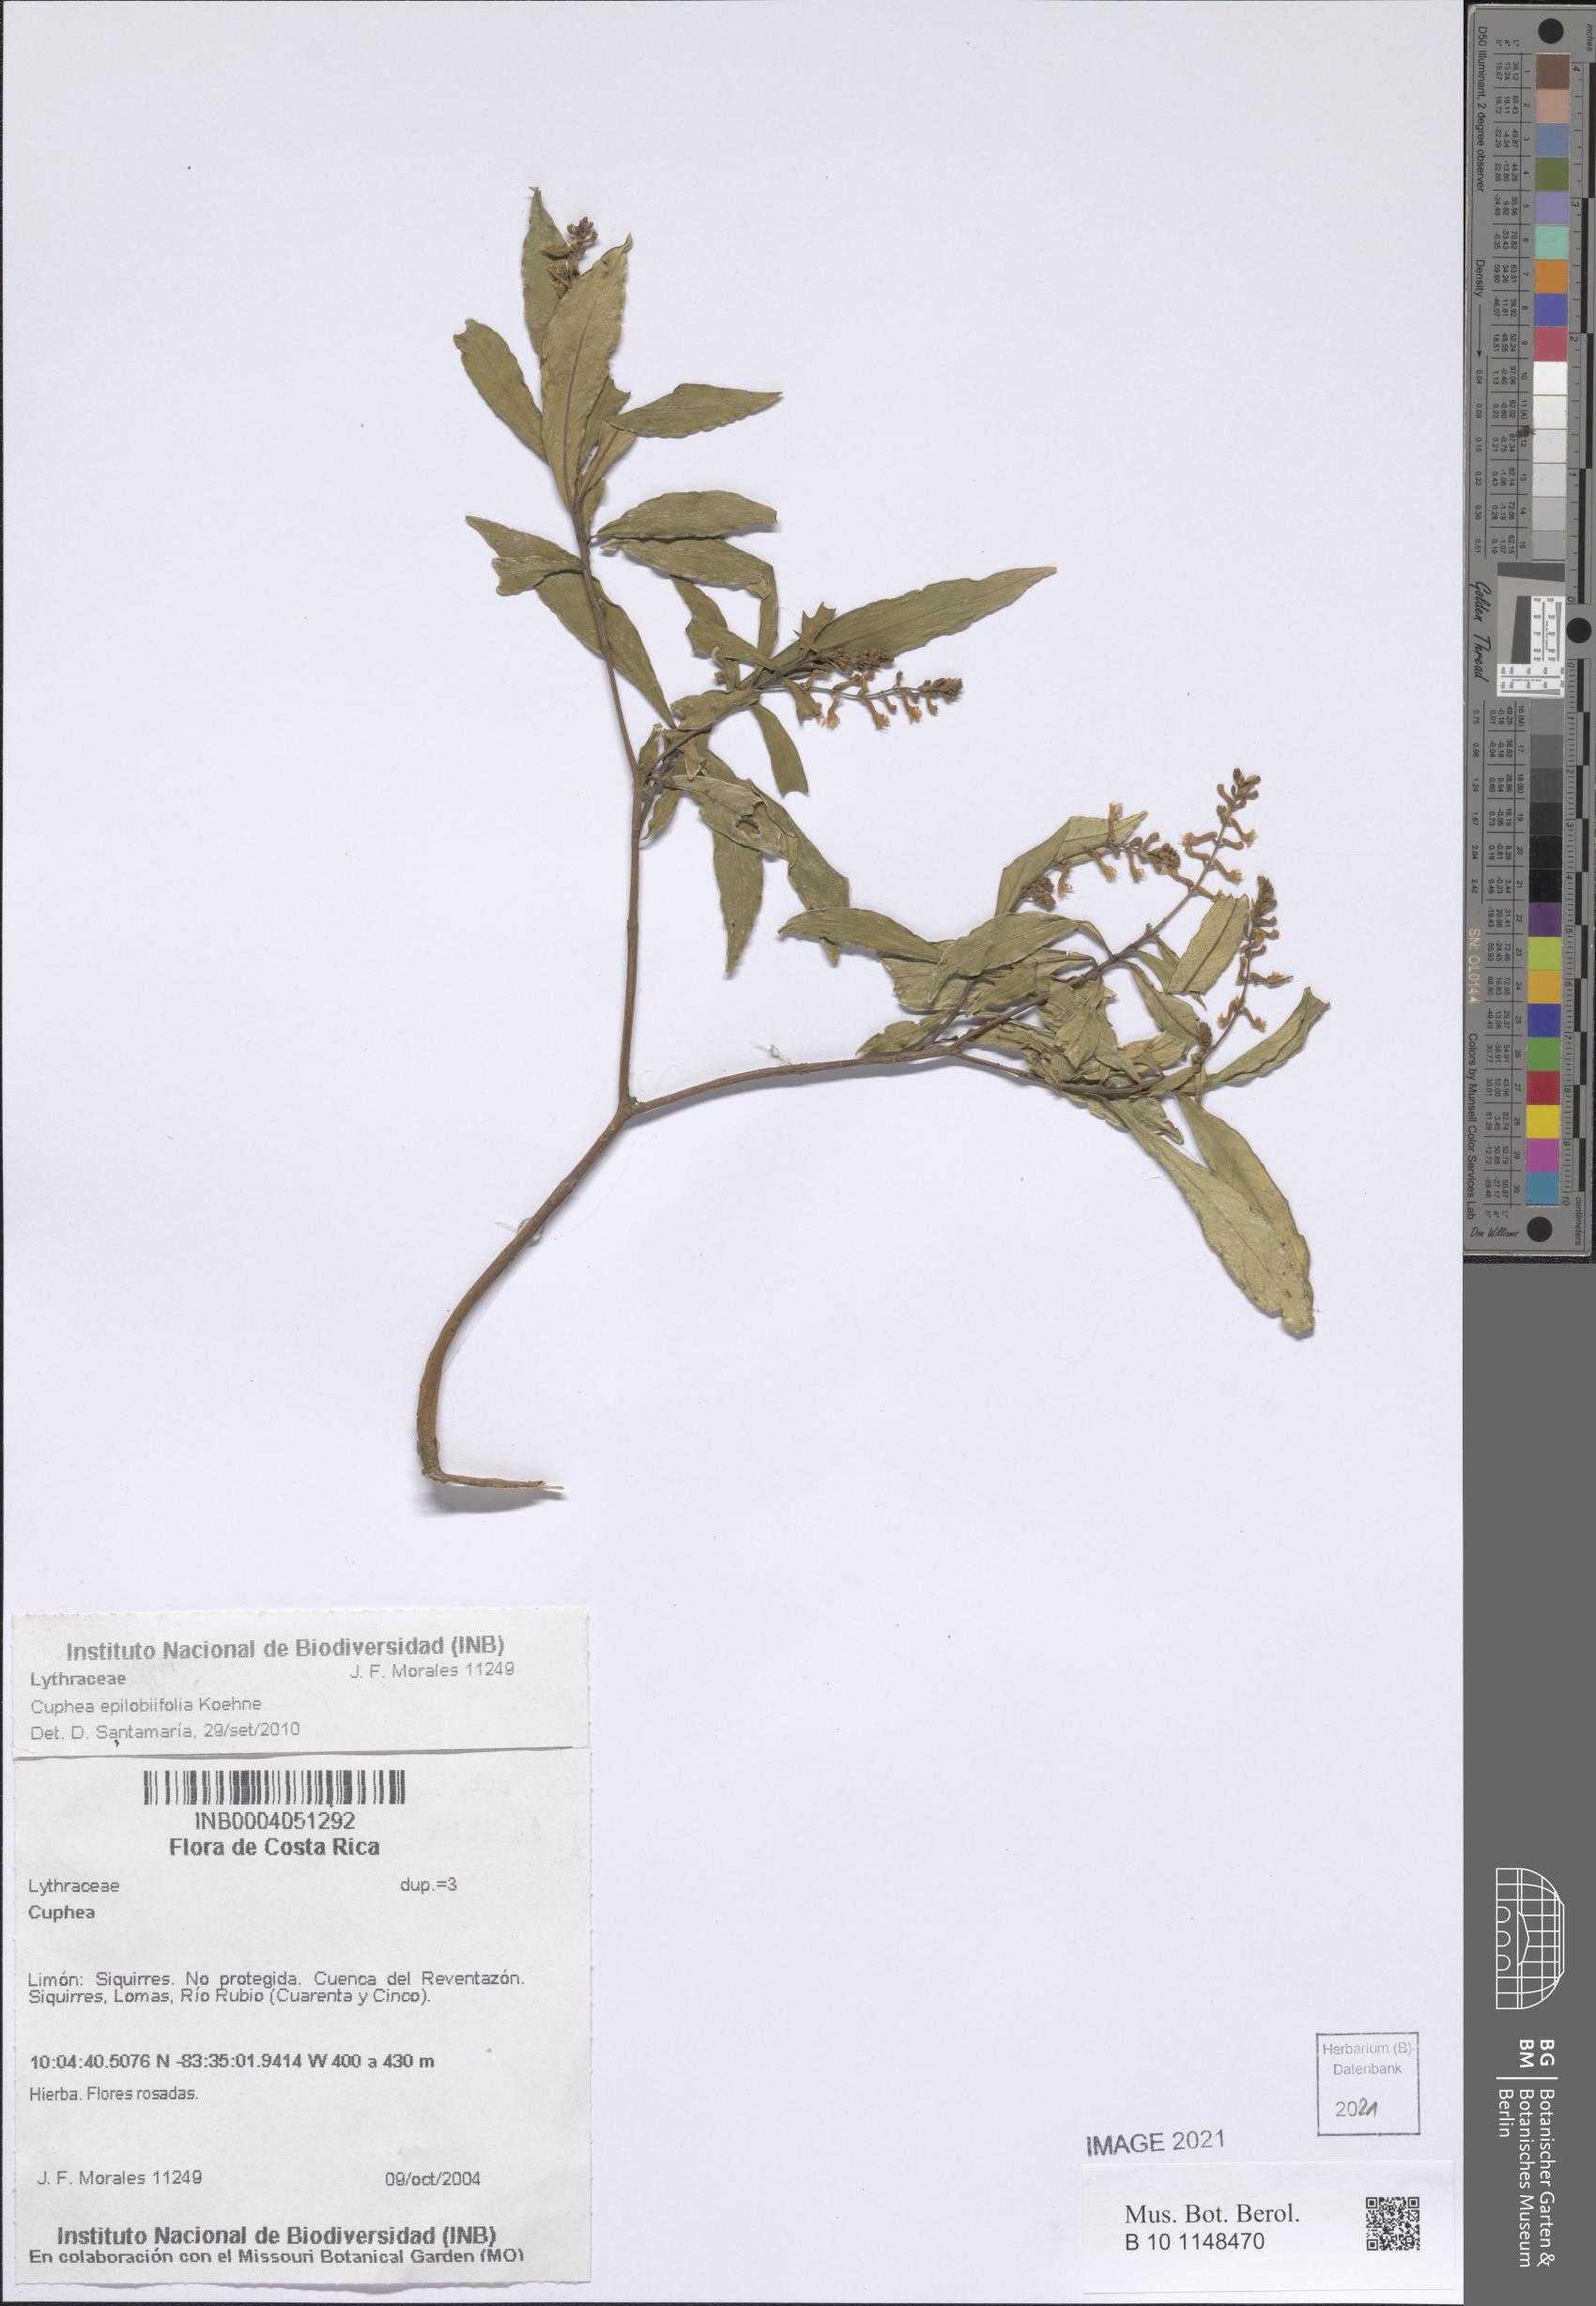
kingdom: Plantae
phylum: Tracheophyta
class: Magnoliopsida
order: Myrtales
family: Lythraceae
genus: Cuphea
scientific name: Cuphea epilobiifolia
